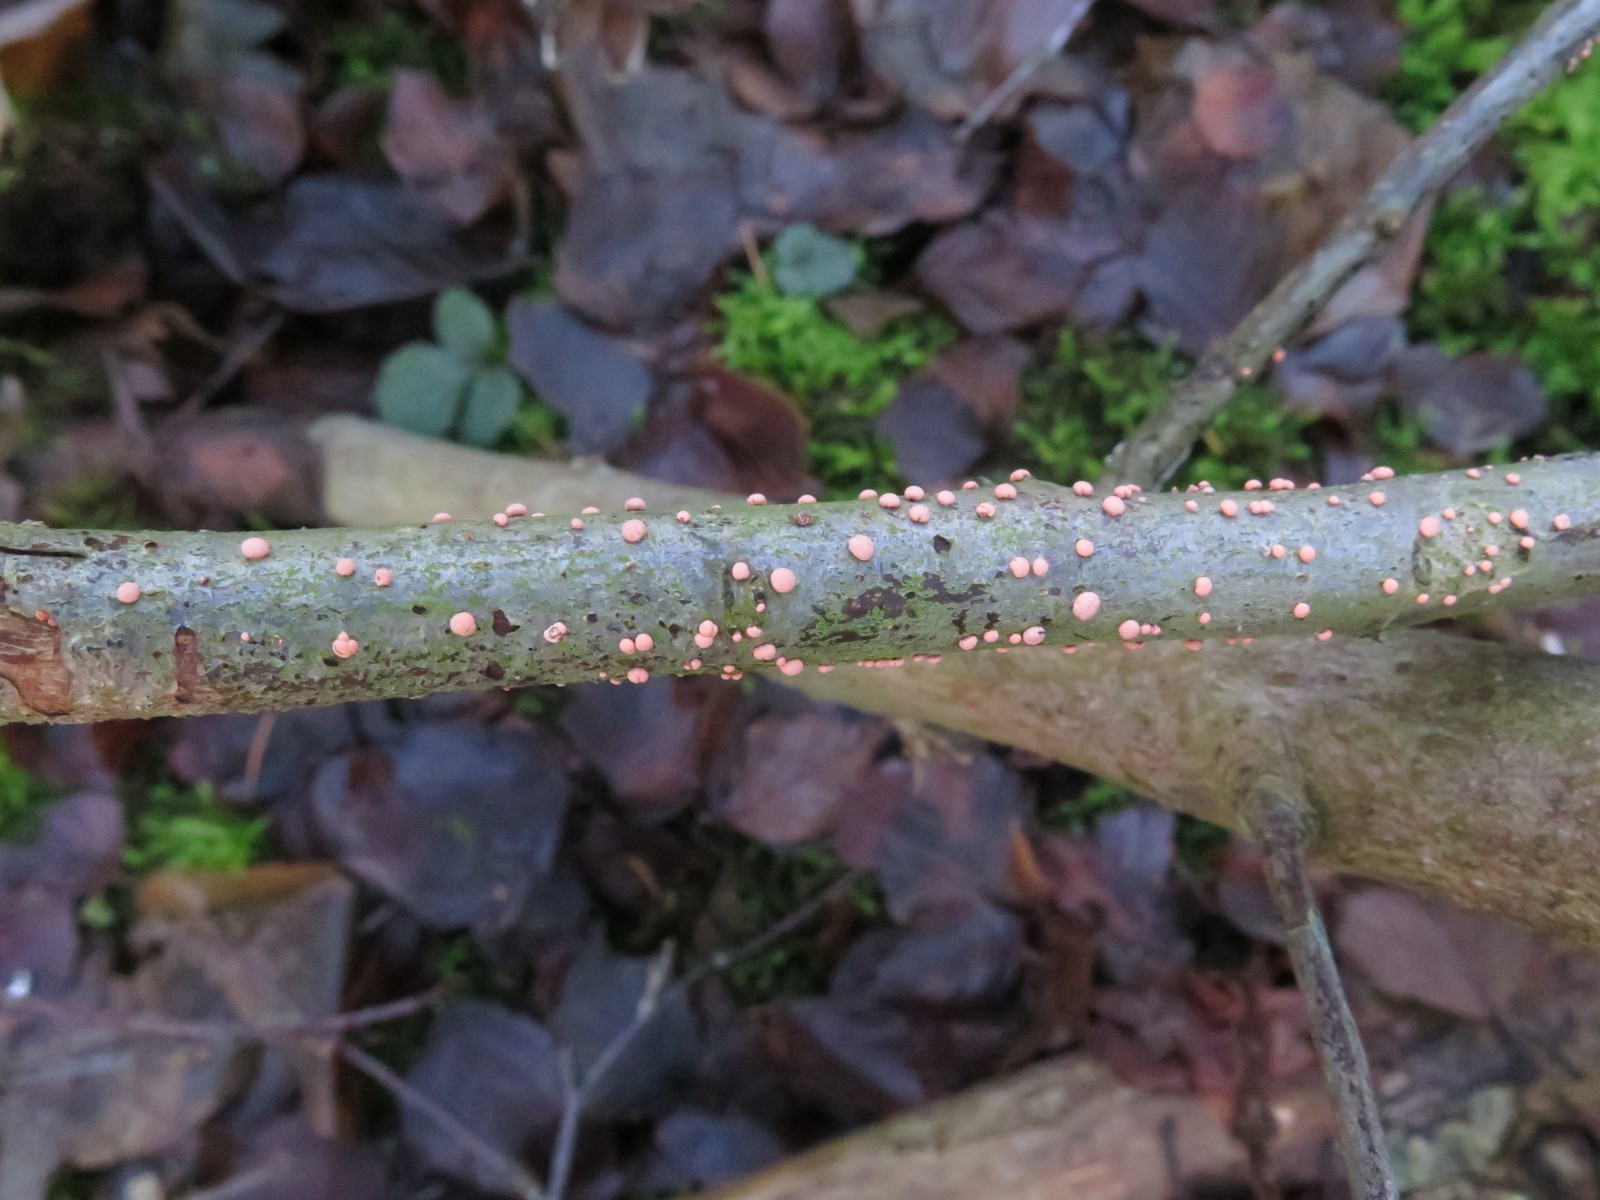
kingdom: Fungi
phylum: Ascomycota
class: Sordariomycetes
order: Hypocreales
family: Nectriaceae
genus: Nectria
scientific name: Nectria cinnabarina
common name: almindelig cinnobersvamp
